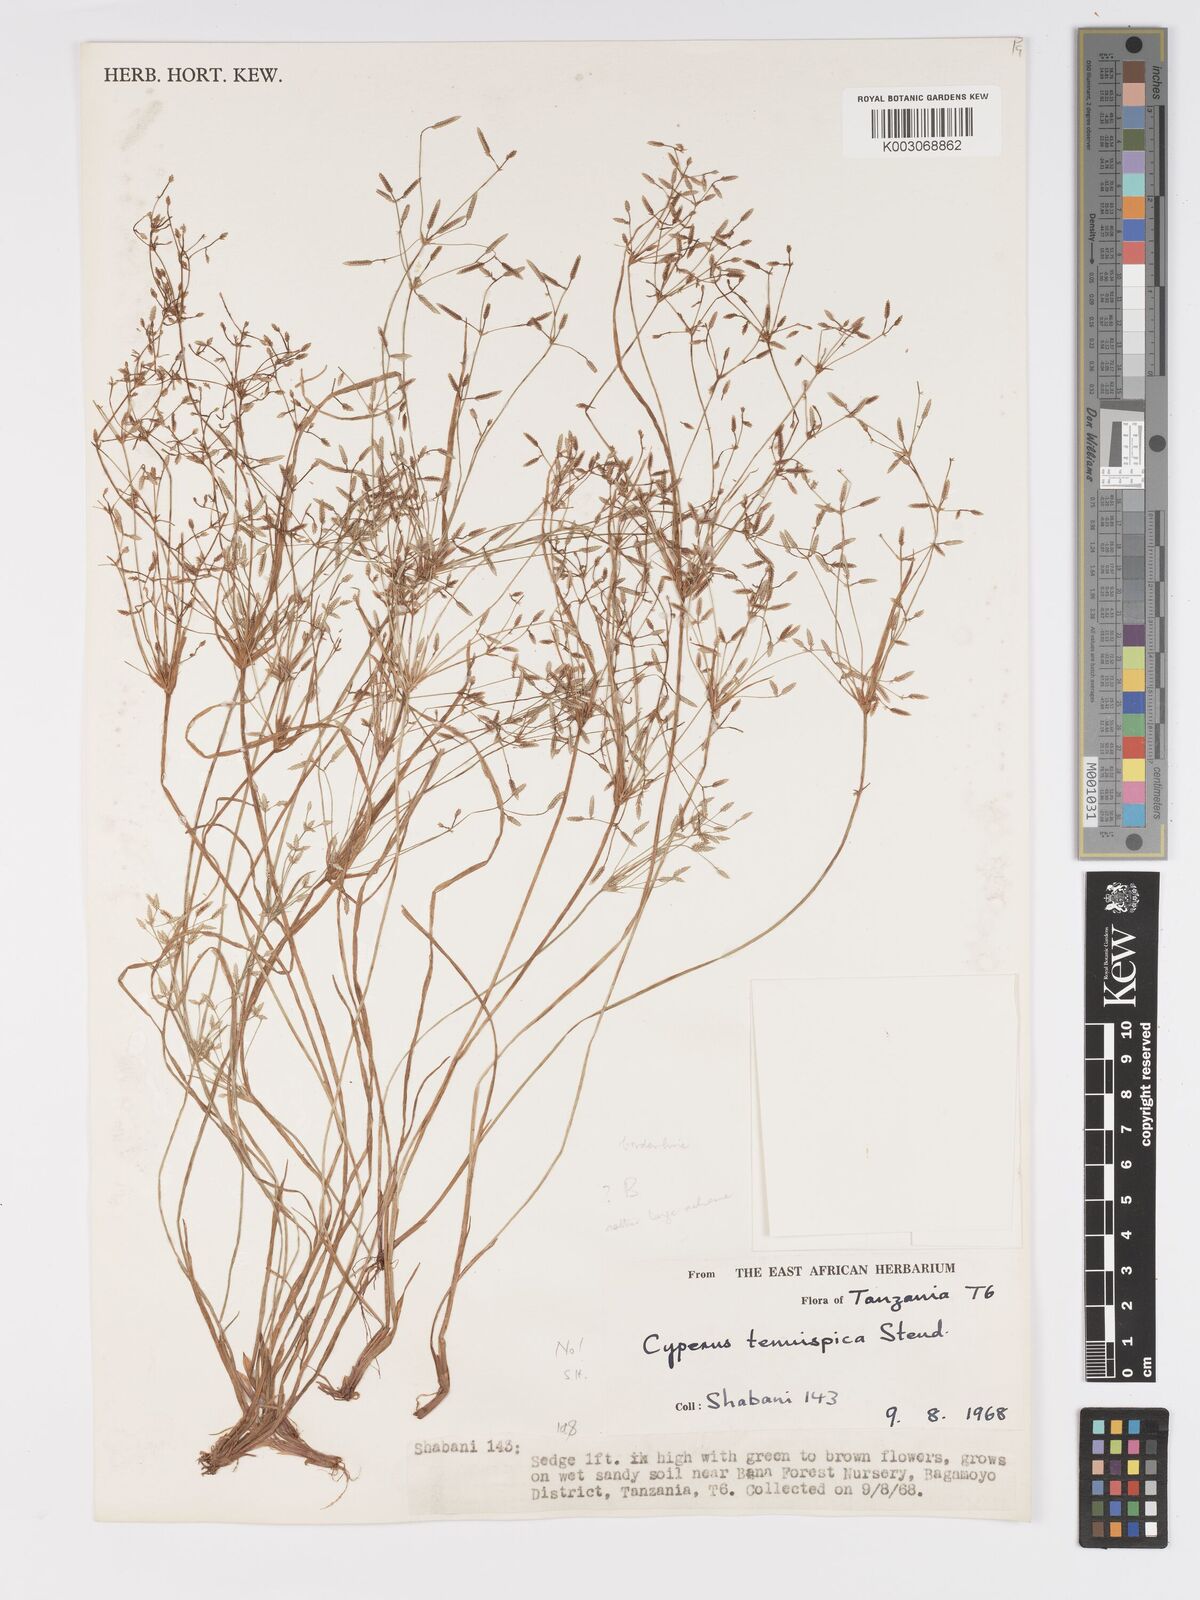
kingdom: Plantae
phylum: Tracheophyta
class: Liliopsida
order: Poales
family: Cyperaceae
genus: Cyperus
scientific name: Cyperus tenuispica
